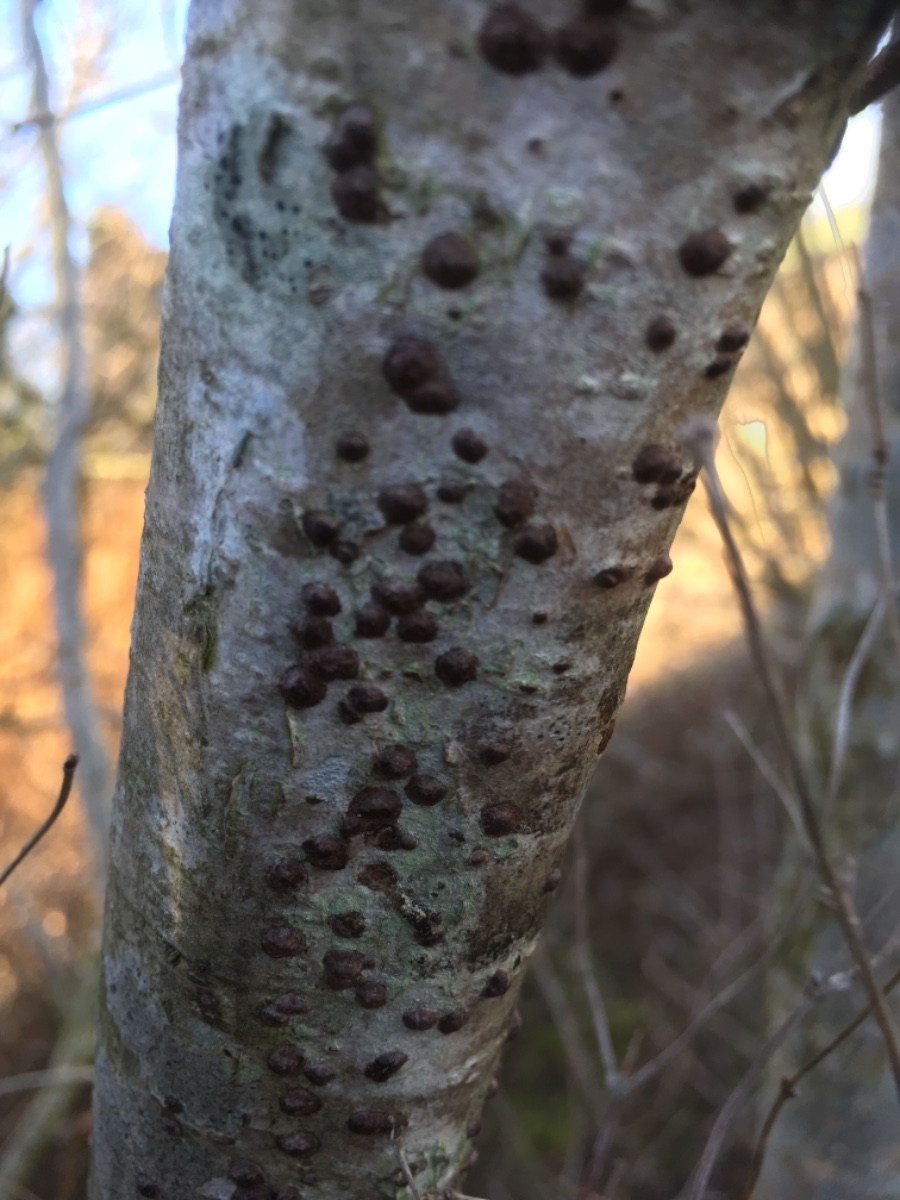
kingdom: Fungi
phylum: Ascomycota
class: Sordariomycetes
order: Xylariales
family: Hypoxylaceae
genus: Hypoxylon
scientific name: Hypoxylon fuscum
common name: kegleformet kulbær
